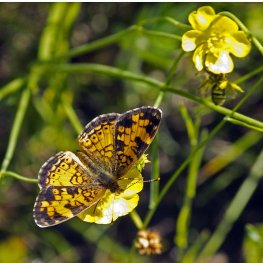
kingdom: Animalia
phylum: Arthropoda
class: Insecta
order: Lepidoptera
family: Nymphalidae
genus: Phyciodes
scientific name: Phyciodes tharos
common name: Northern Crescent
